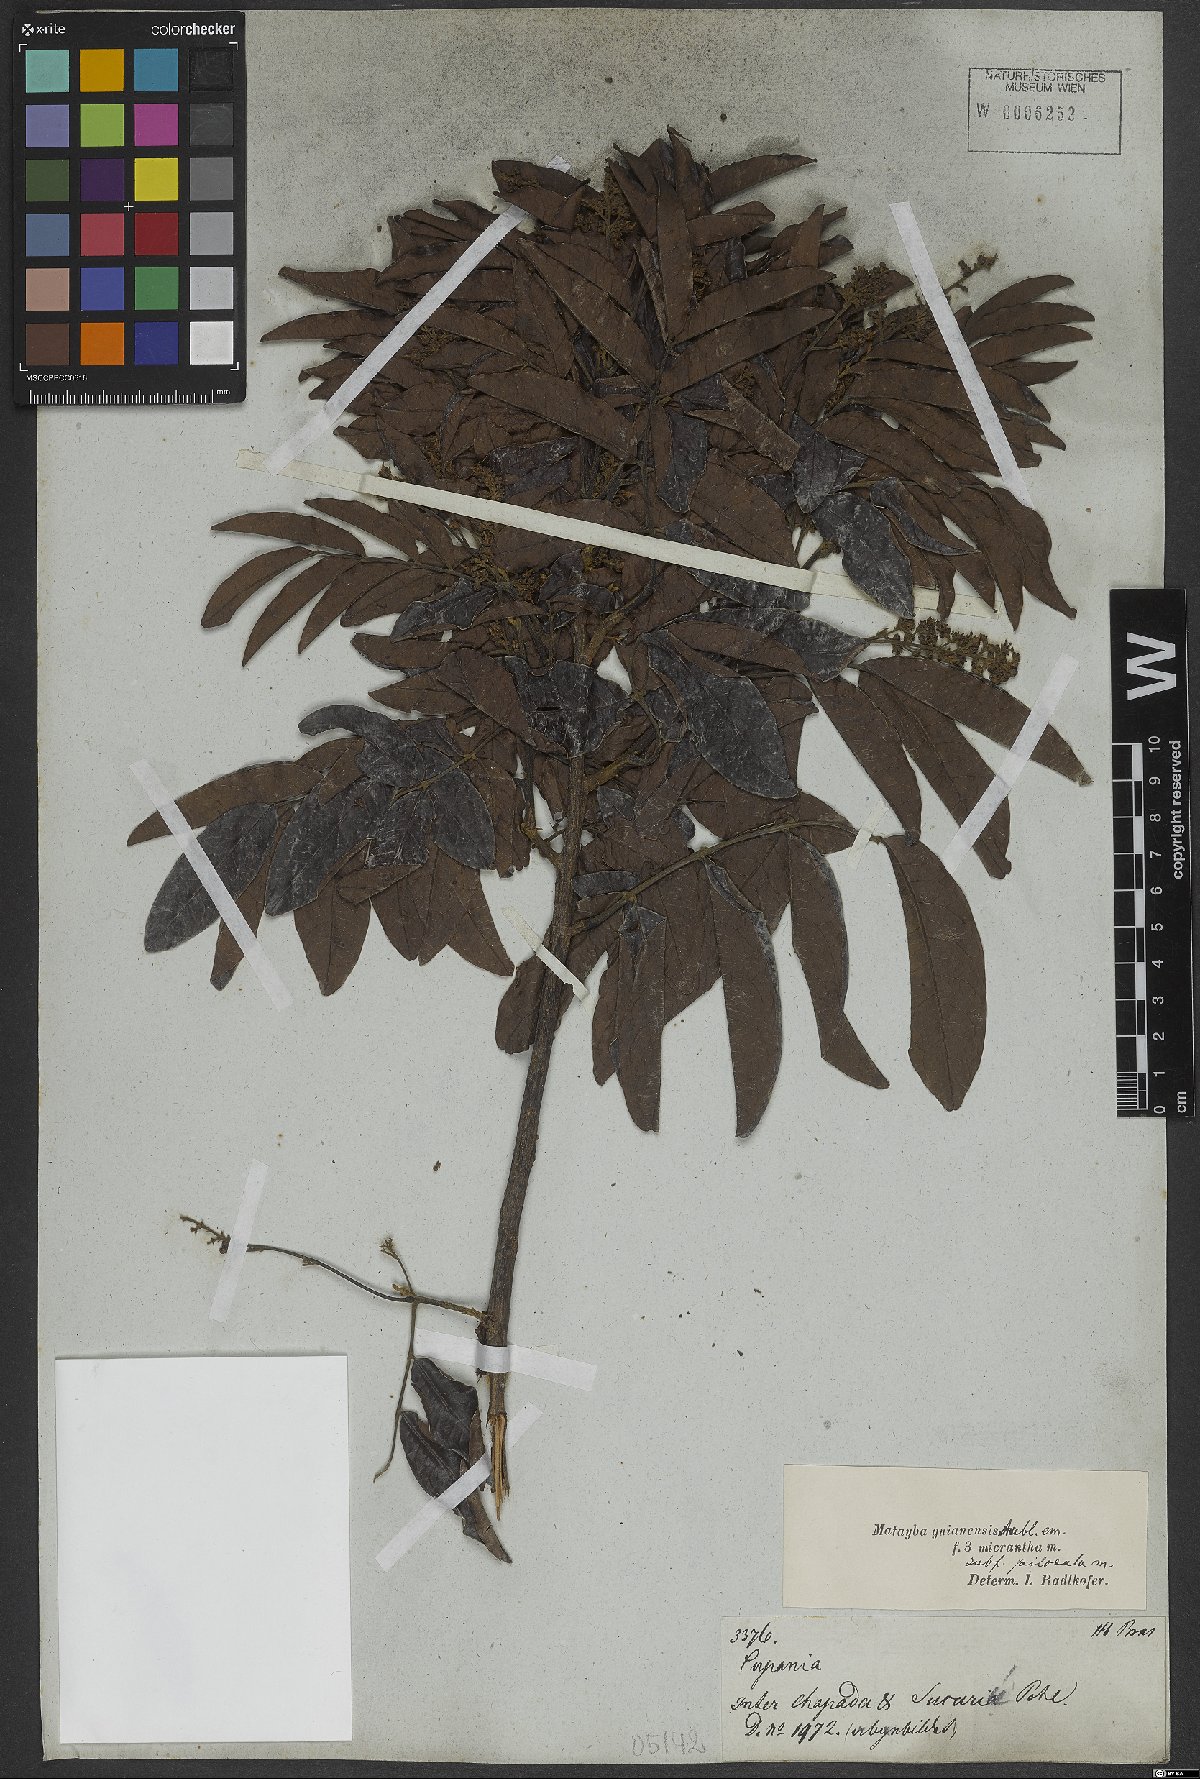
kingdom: Plantae
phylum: Tracheophyta
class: Magnoliopsida
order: Sapindales
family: Sapindaceae
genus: Matayba
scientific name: Matayba guianensis
